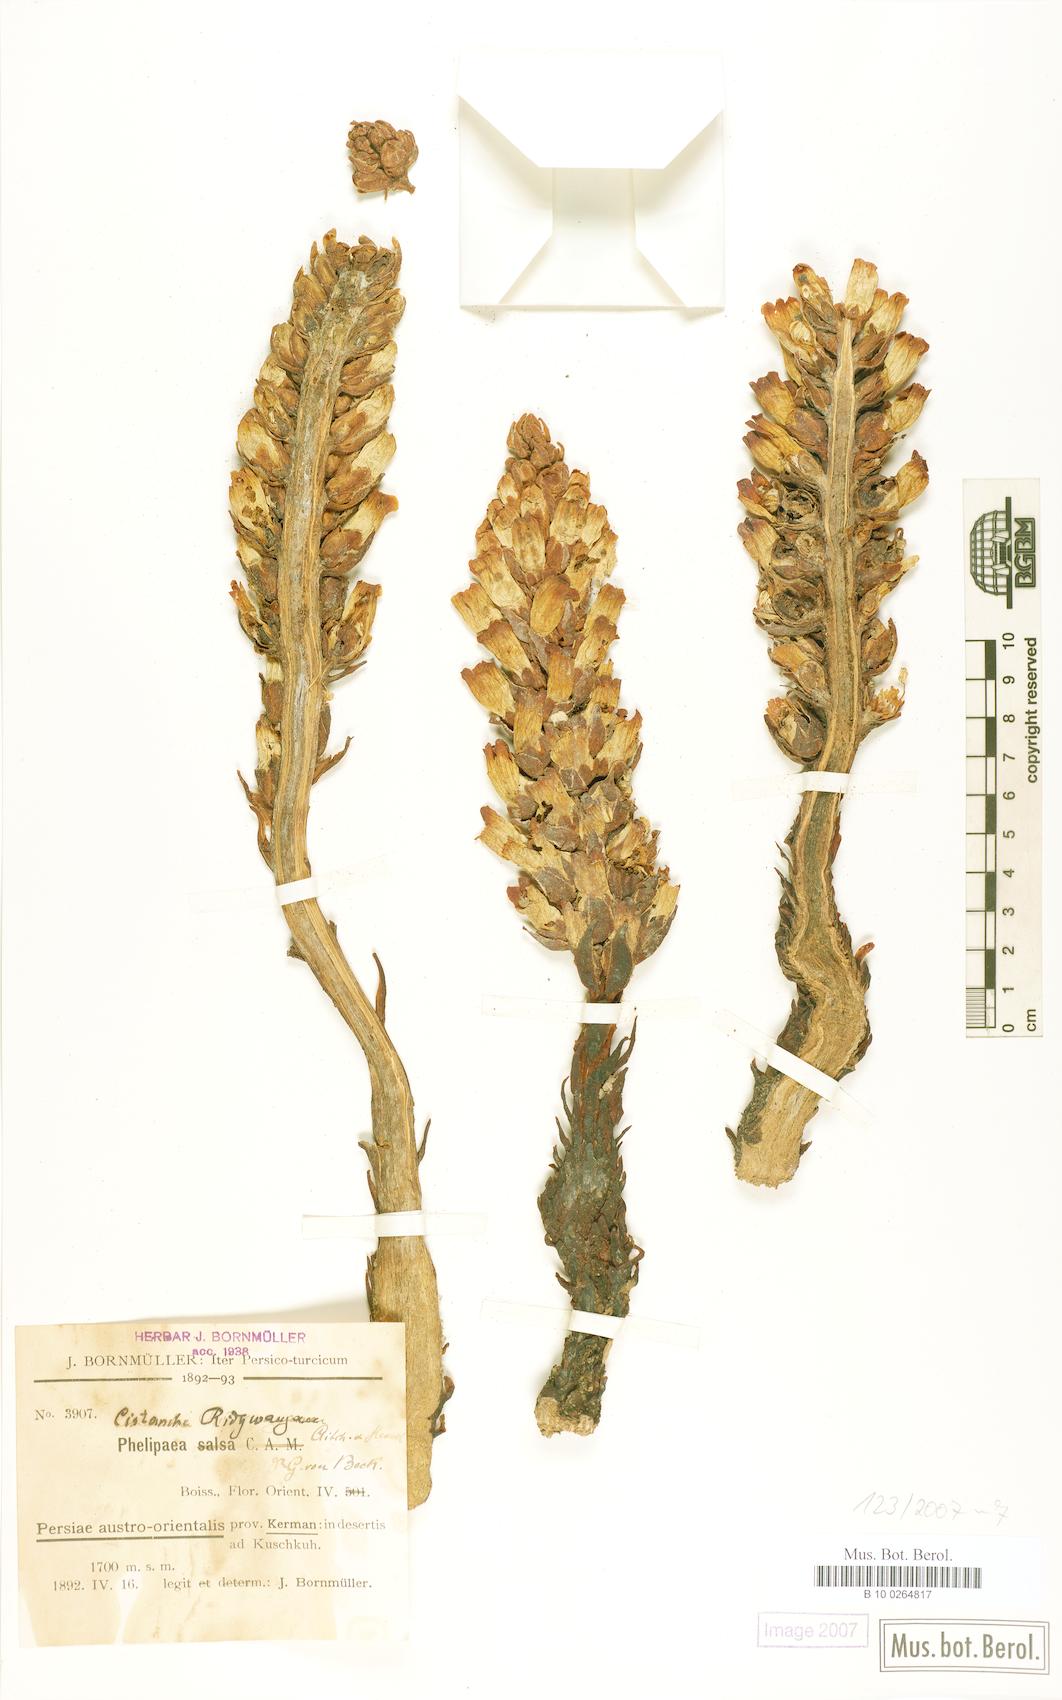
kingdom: Plantae
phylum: Tracheophyta
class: Magnoliopsida
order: Lamiales
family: Orobanchaceae
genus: Cistanche
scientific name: Cistanche persica
